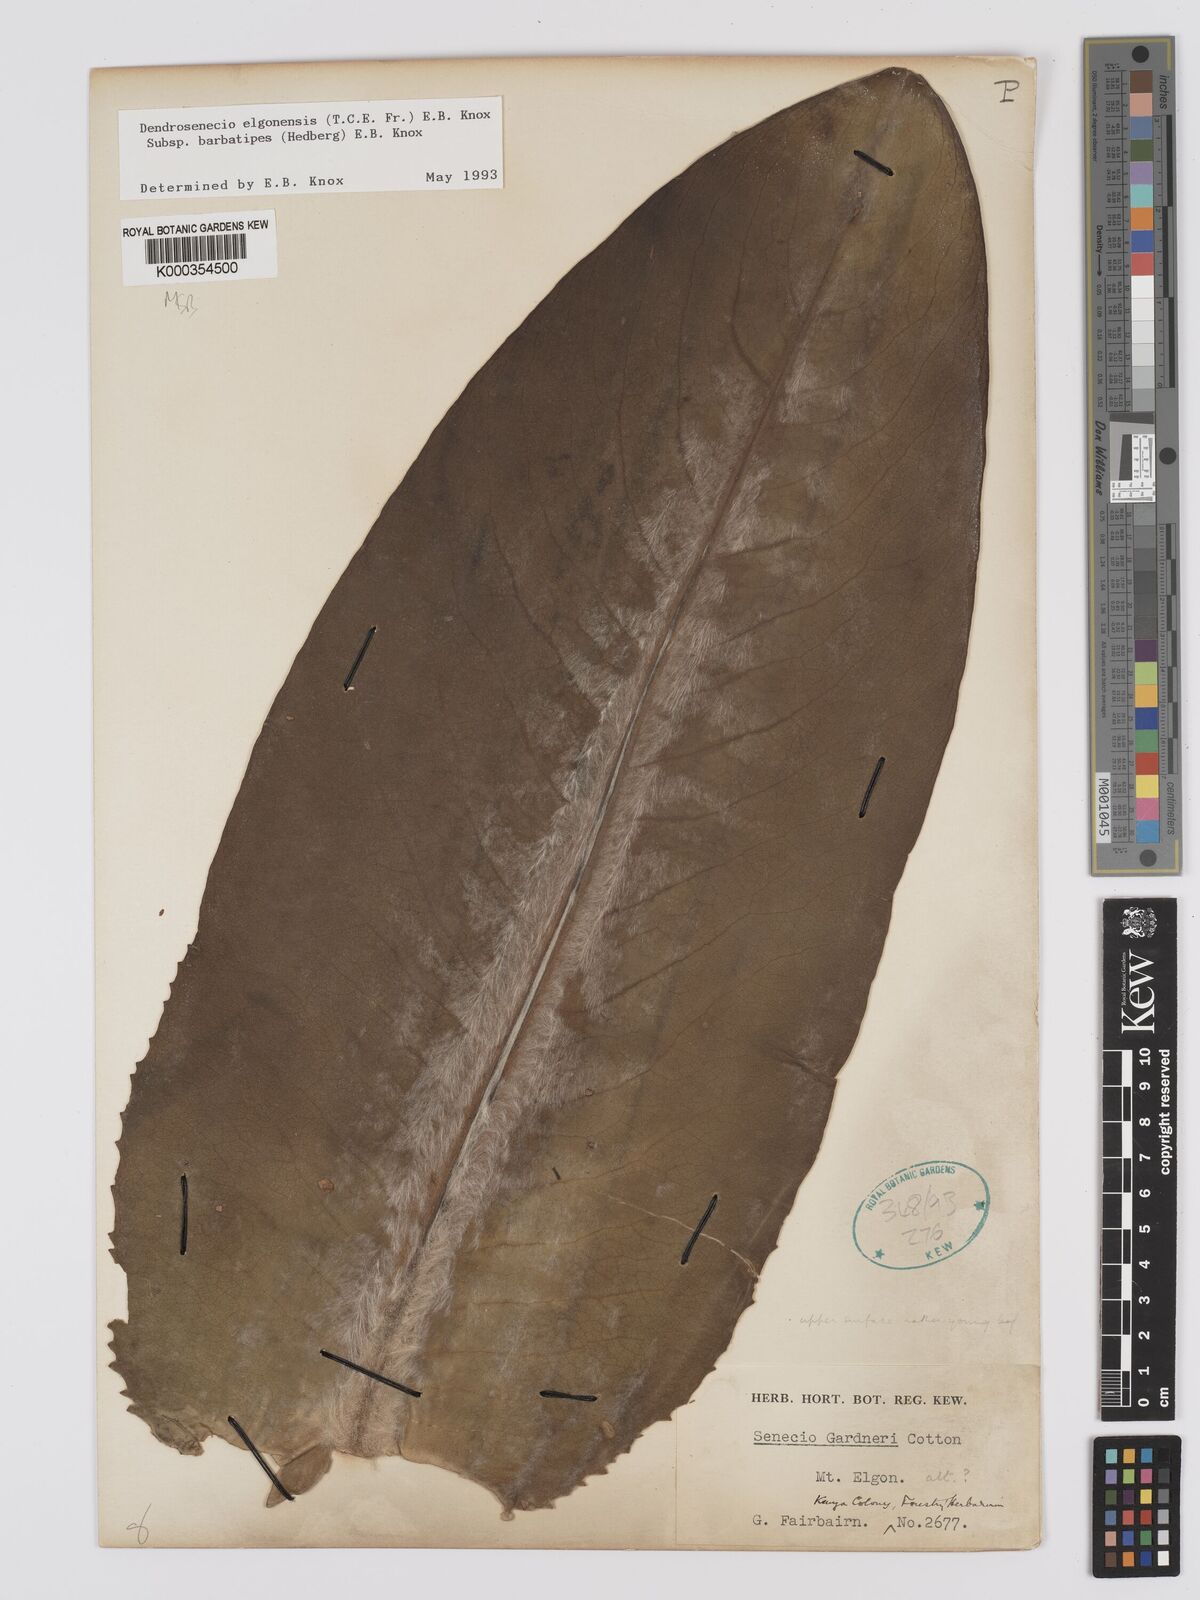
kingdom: Plantae
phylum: Tracheophyta
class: Magnoliopsida
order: Asterales
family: Asteraceae
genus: Dendrosenecio
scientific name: Dendrosenecio elgonensis
